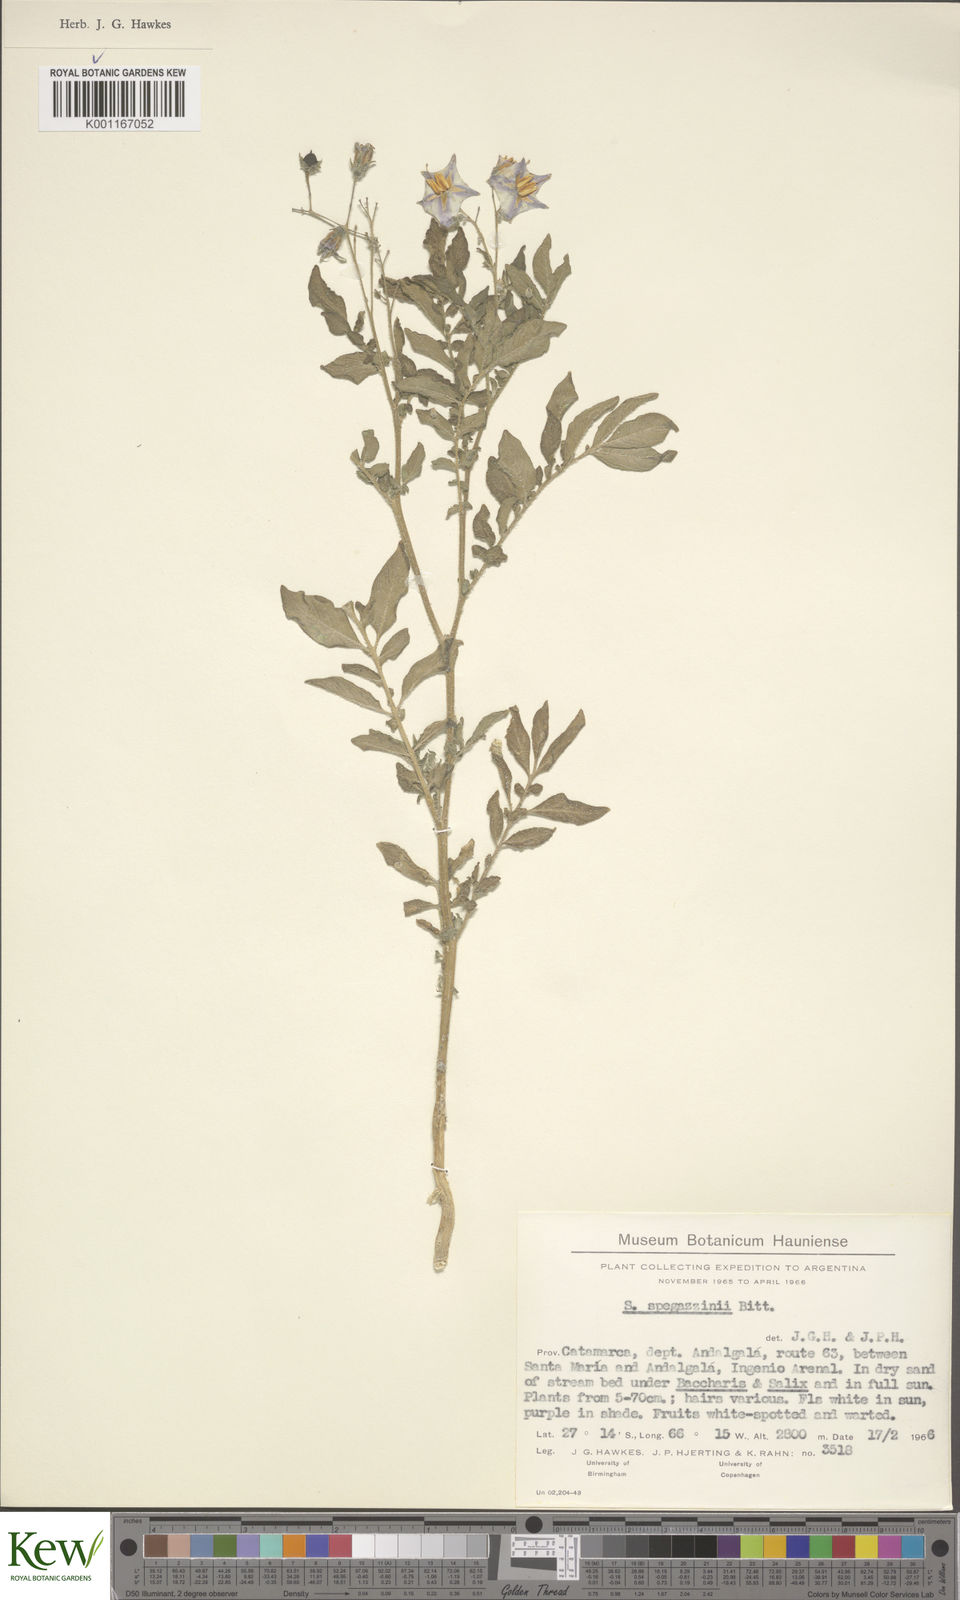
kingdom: Plantae
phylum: Tracheophyta
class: Magnoliopsida
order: Solanales
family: Solanaceae
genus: Solanum
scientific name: Solanum brevicaule
